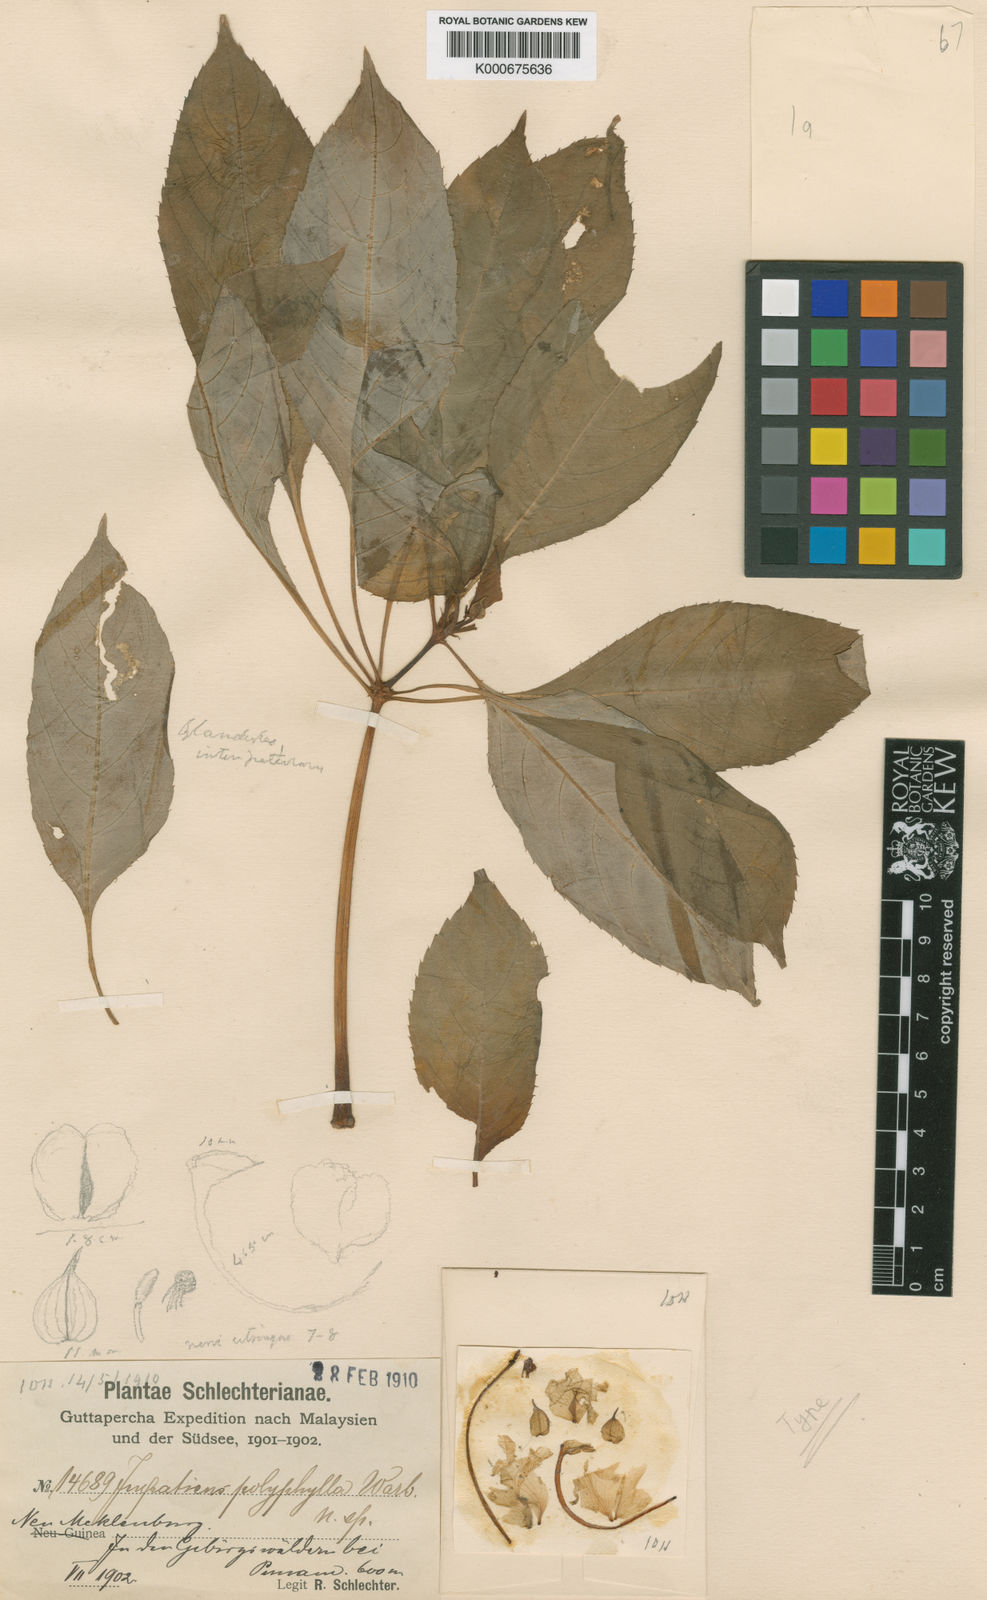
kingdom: Plantae
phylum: Tracheophyta
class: Magnoliopsida
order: Ericales
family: Balsaminaceae
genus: Impatiens
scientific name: Impatiens hawkeri
